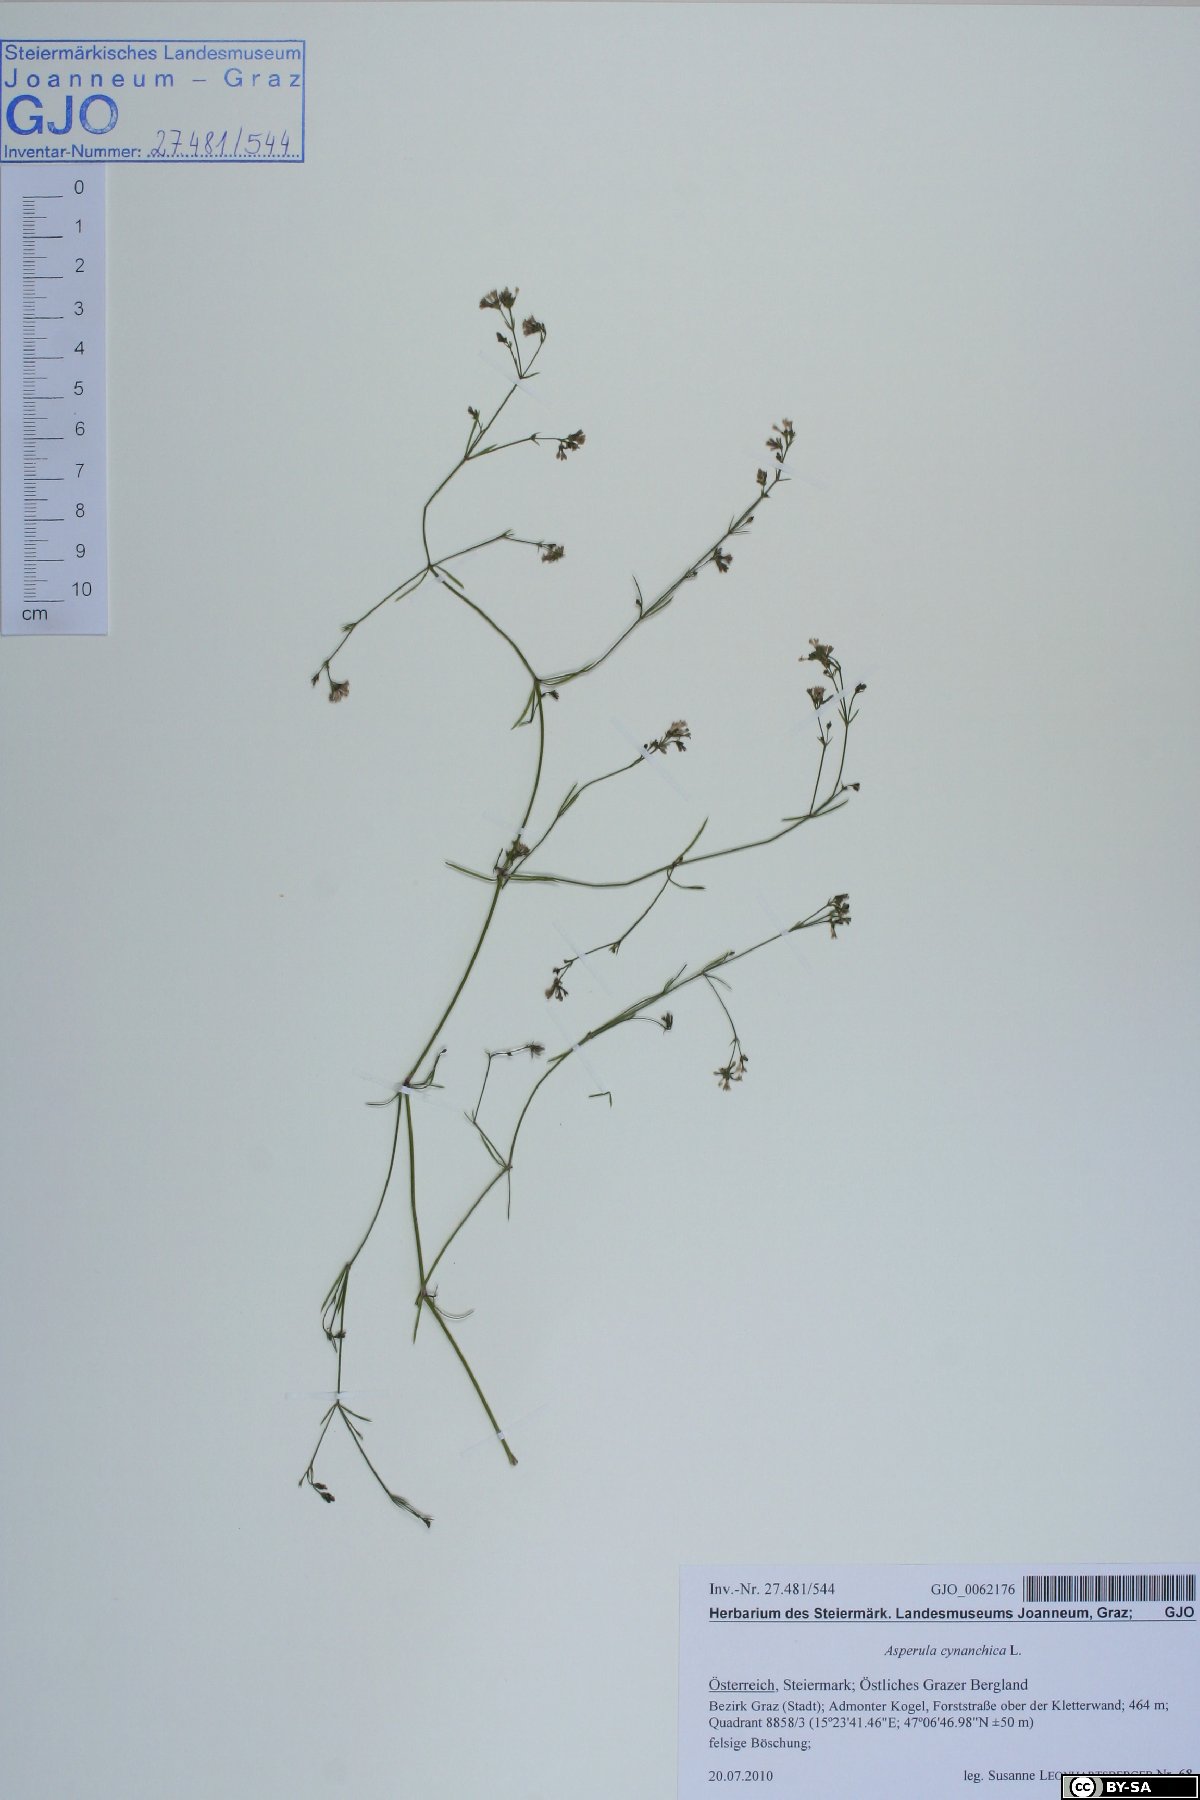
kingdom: Plantae
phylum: Tracheophyta
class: Magnoliopsida
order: Gentianales
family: Rubiaceae
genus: Cynanchica
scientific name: Cynanchica pyrenaica
